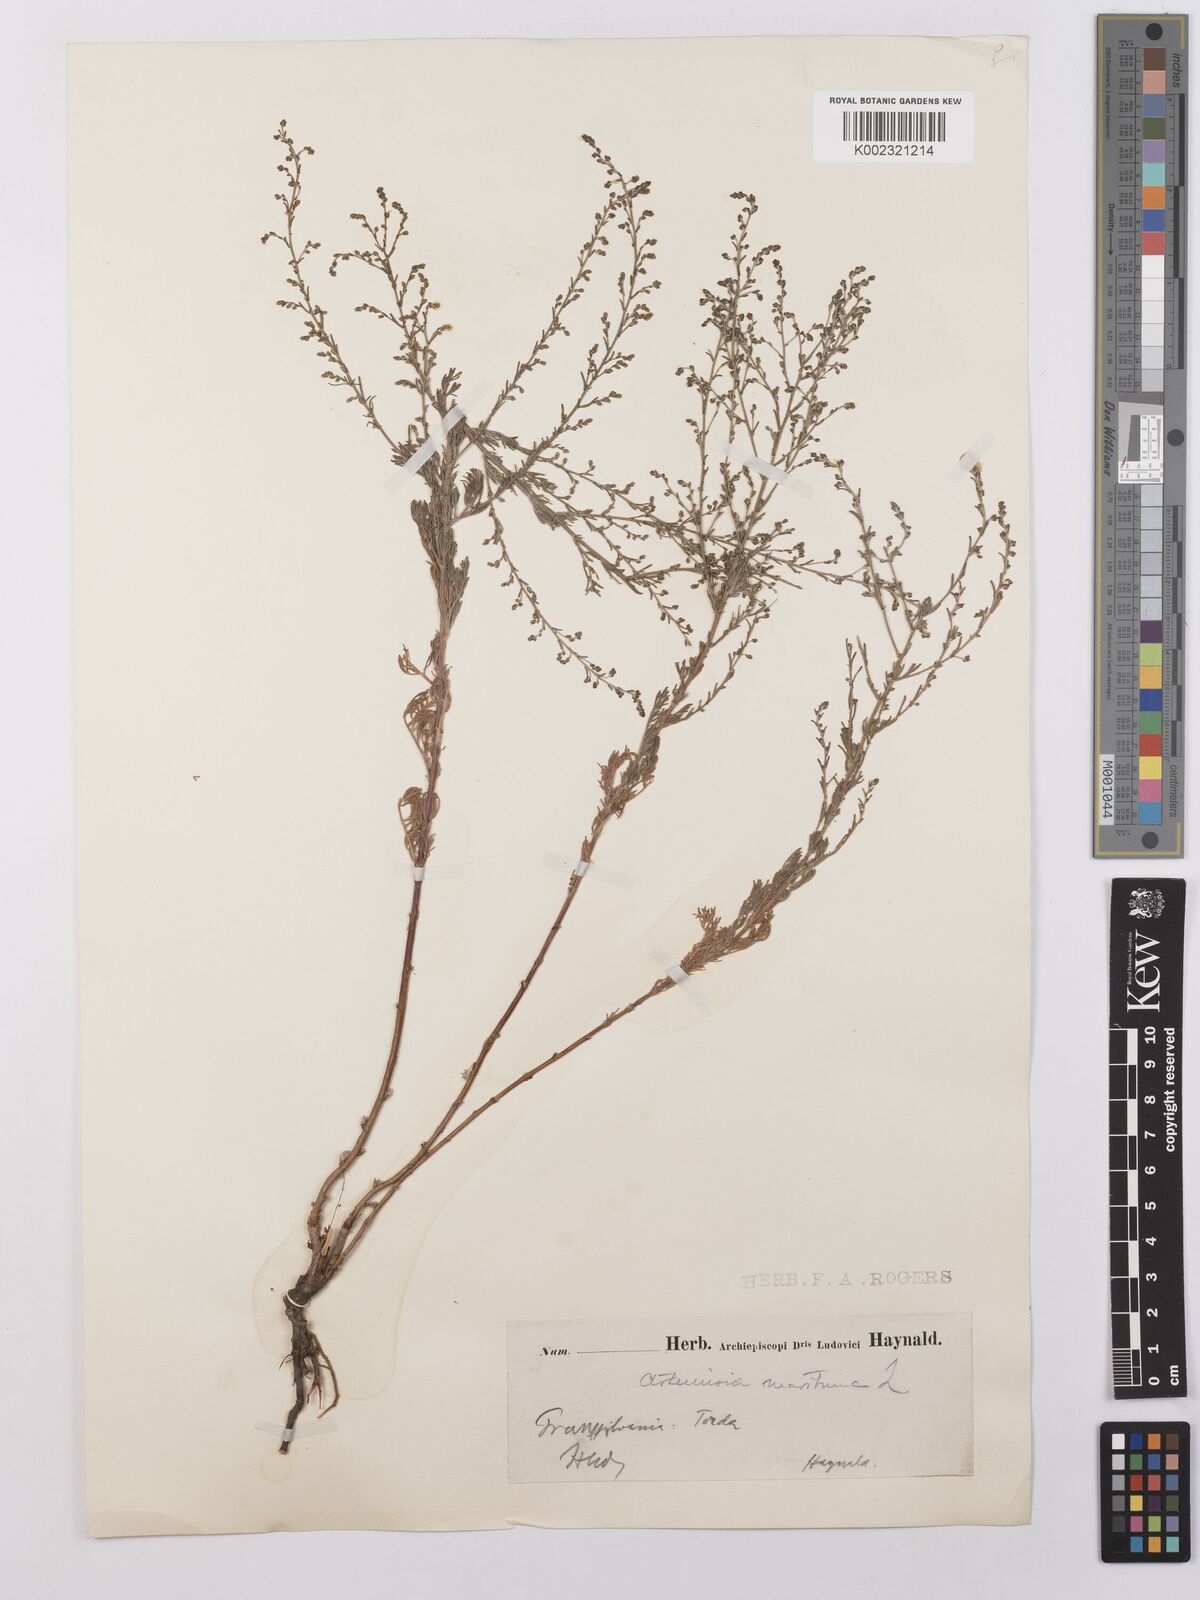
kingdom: Plantae
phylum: Tracheophyta
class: Magnoliopsida
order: Asterales
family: Asteraceae
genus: Artemisia
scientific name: Artemisia maritima
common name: Wormseed
